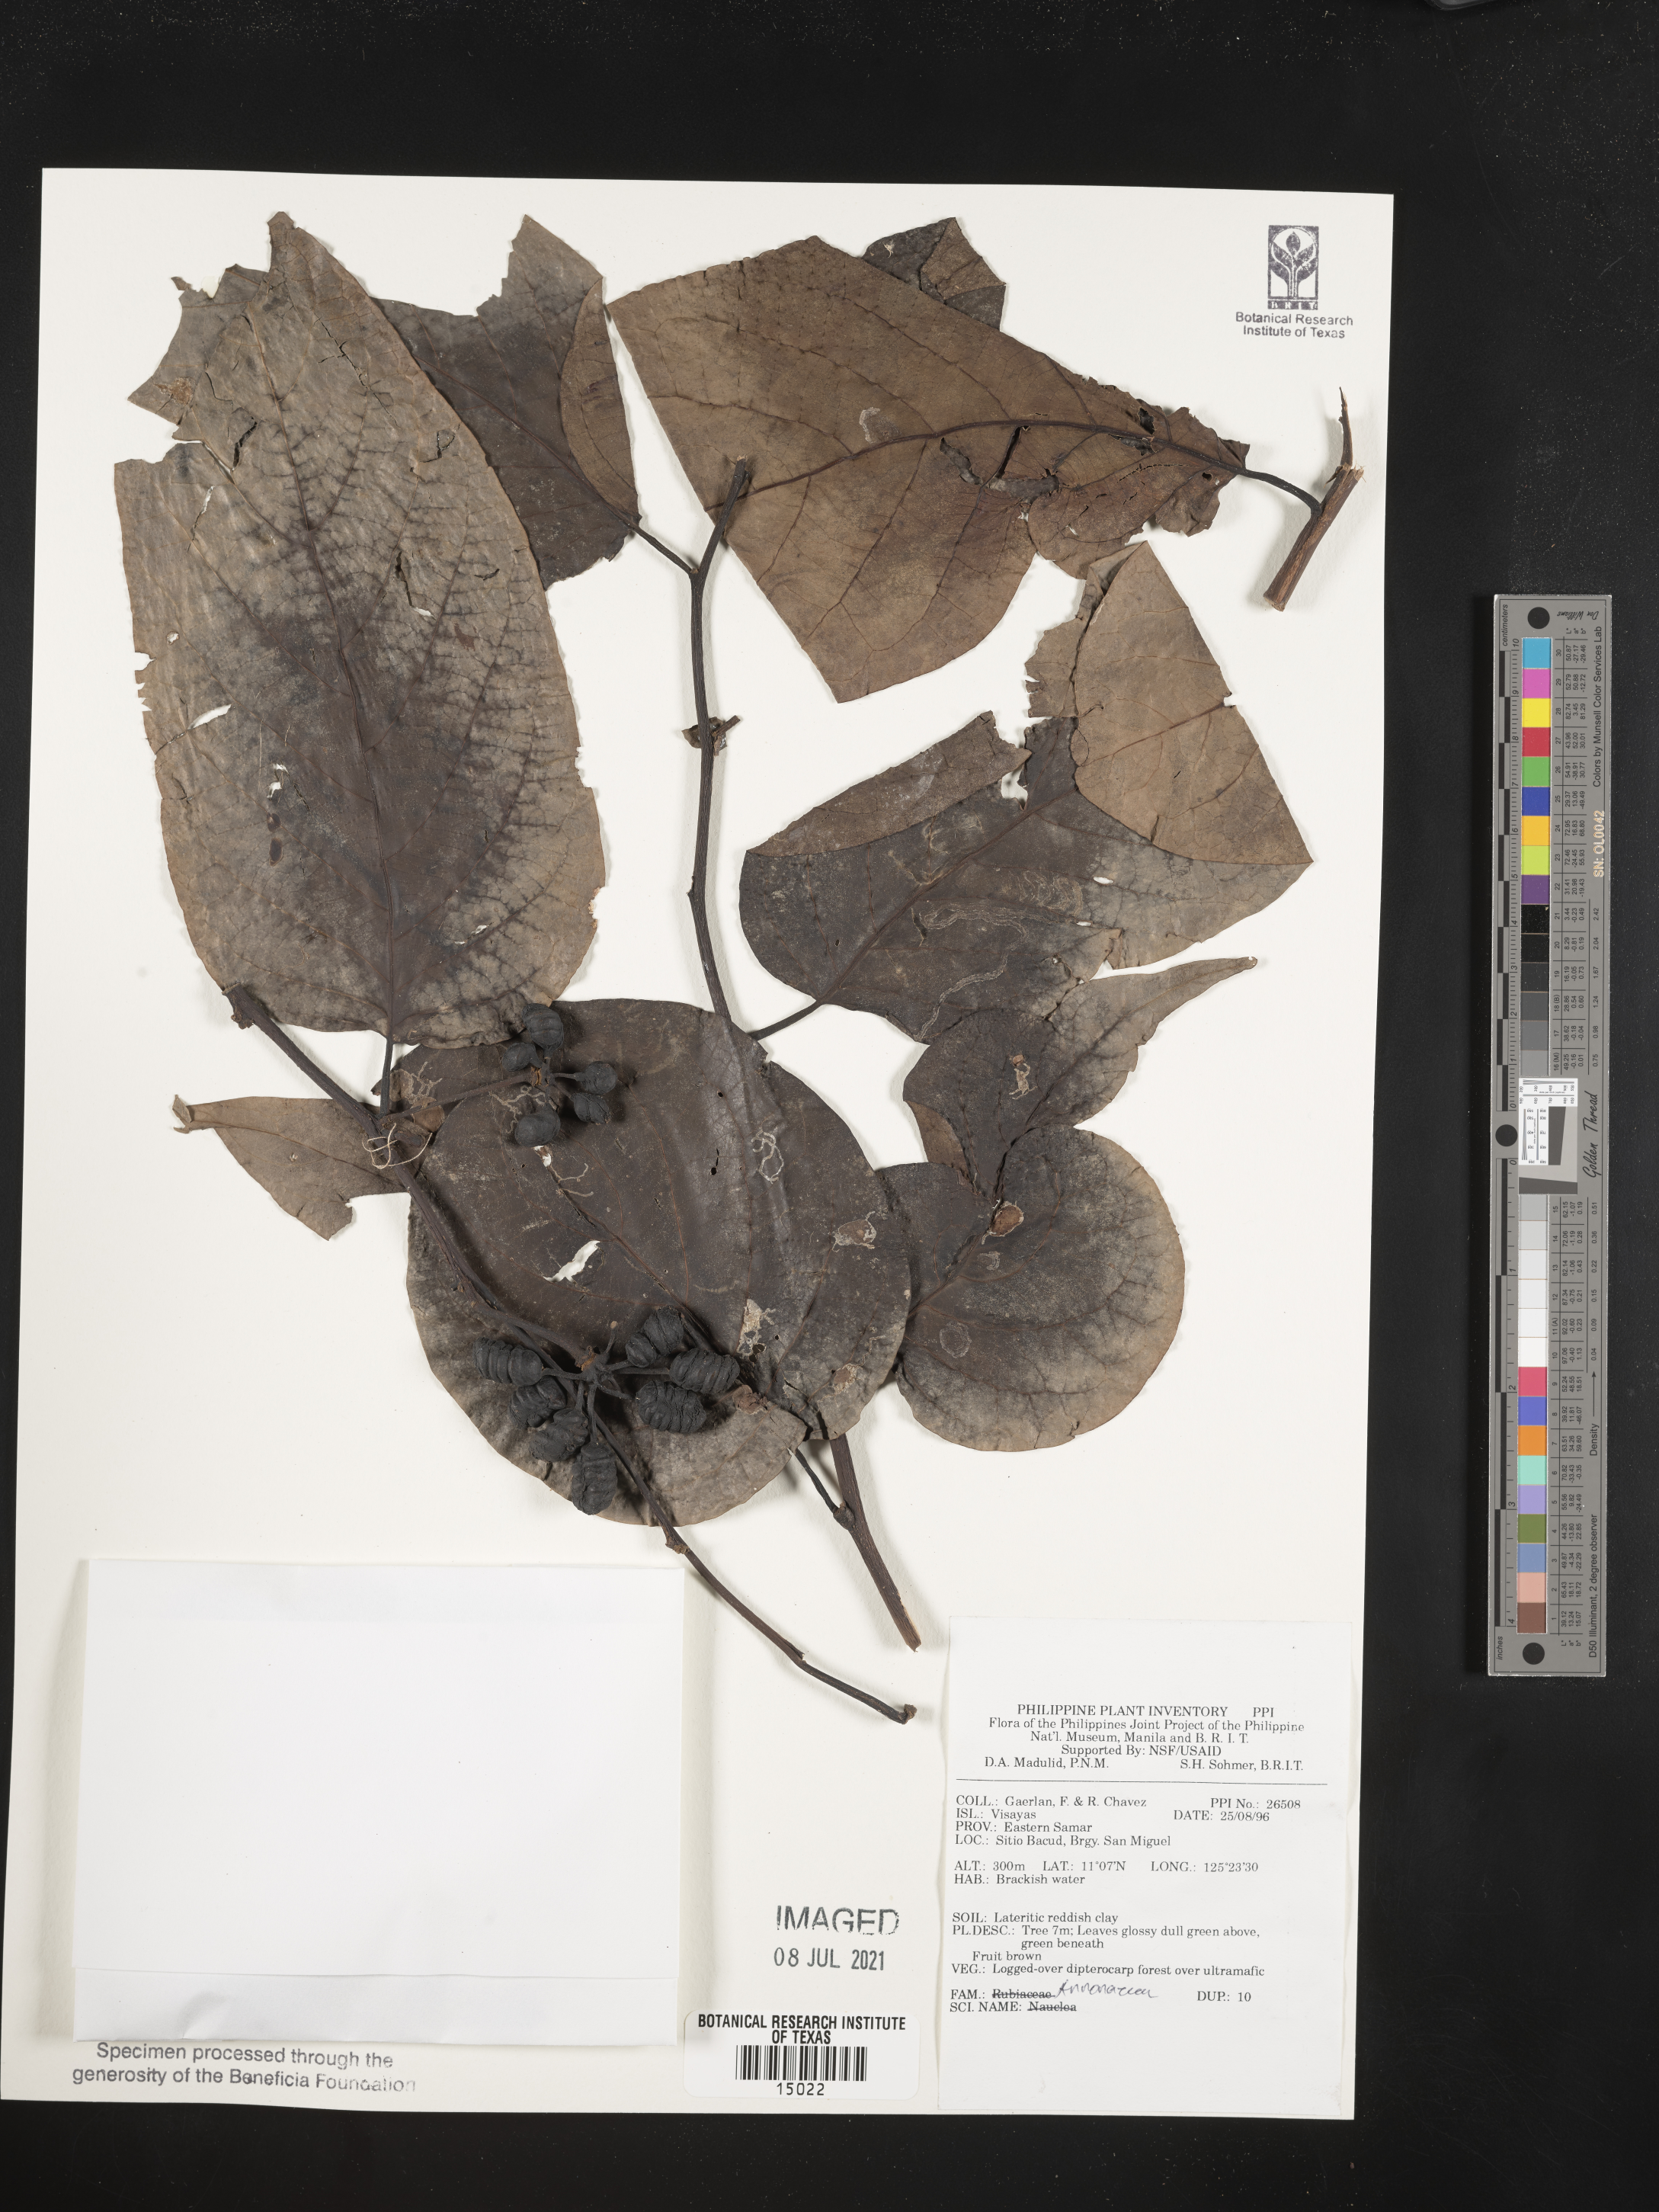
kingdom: Plantae
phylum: Tracheophyta
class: Magnoliopsida
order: Magnoliales
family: Annonaceae
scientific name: Annonaceae
